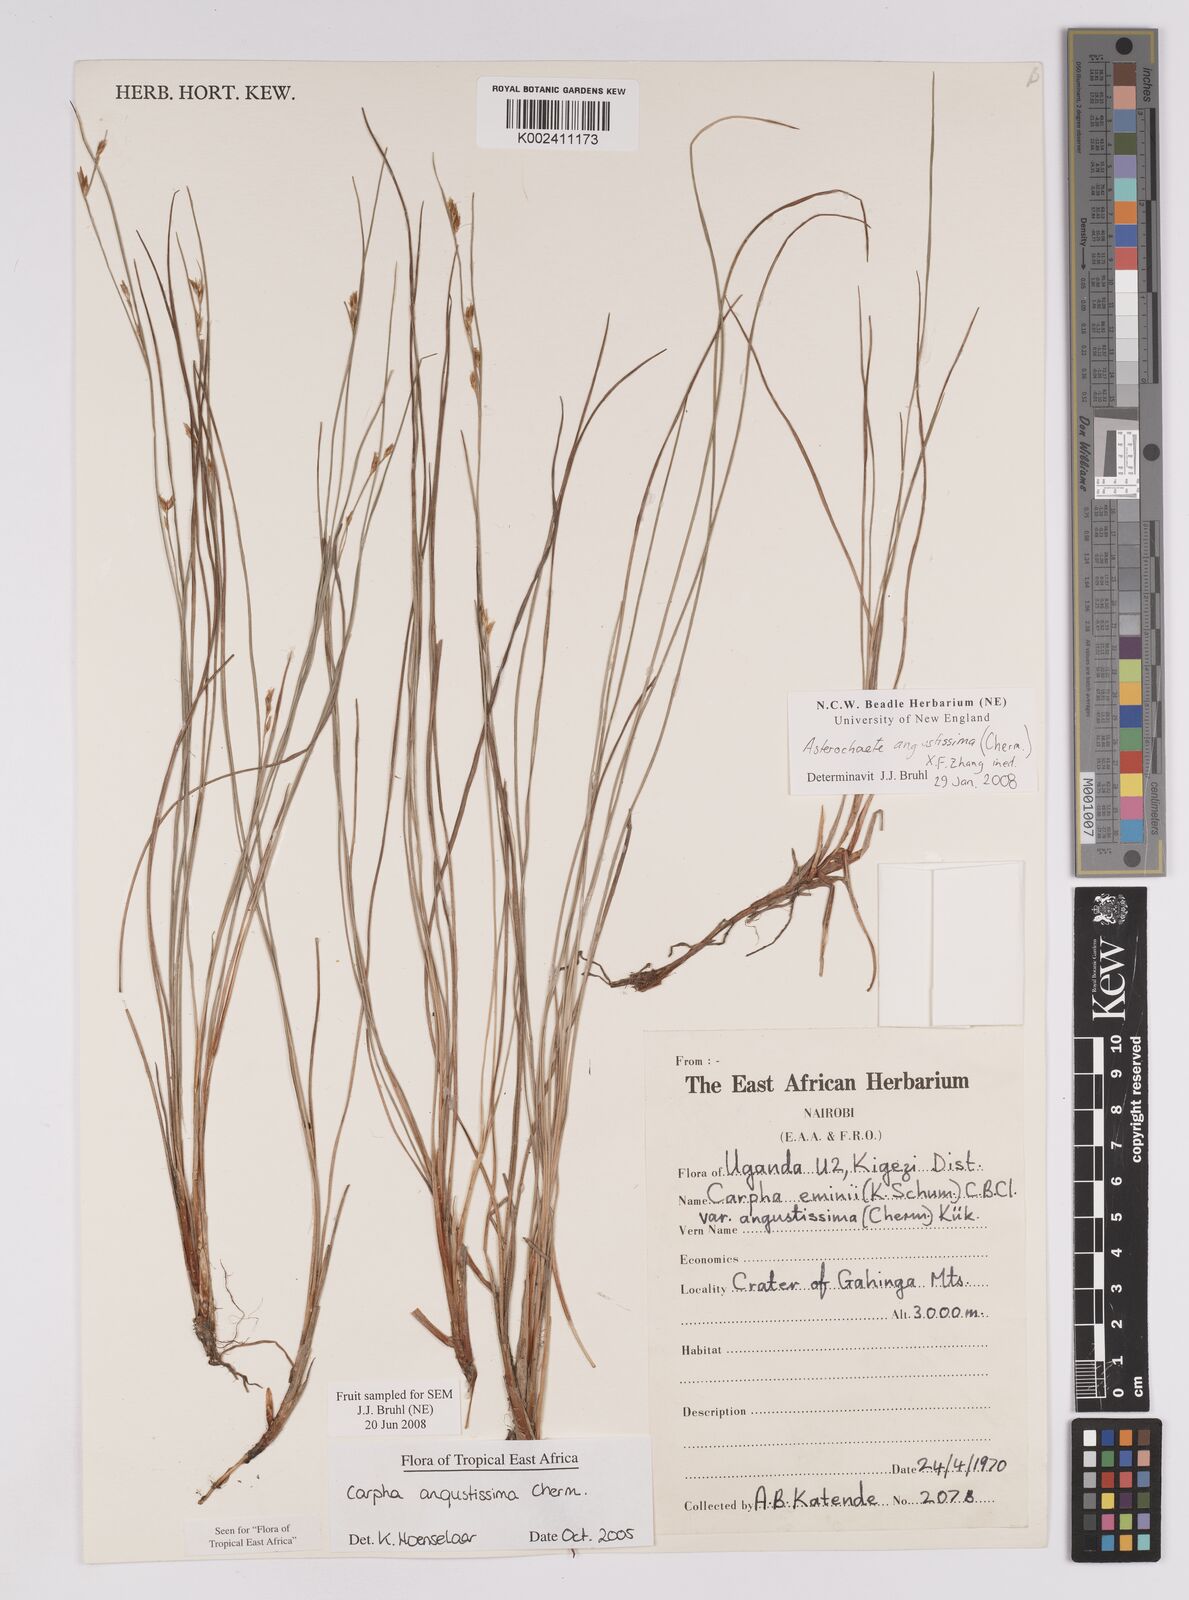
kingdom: Plantae
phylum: Tracheophyta
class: Liliopsida
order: Poales
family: Cyperaceae
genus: Carpha
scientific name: Carpha angustissima
